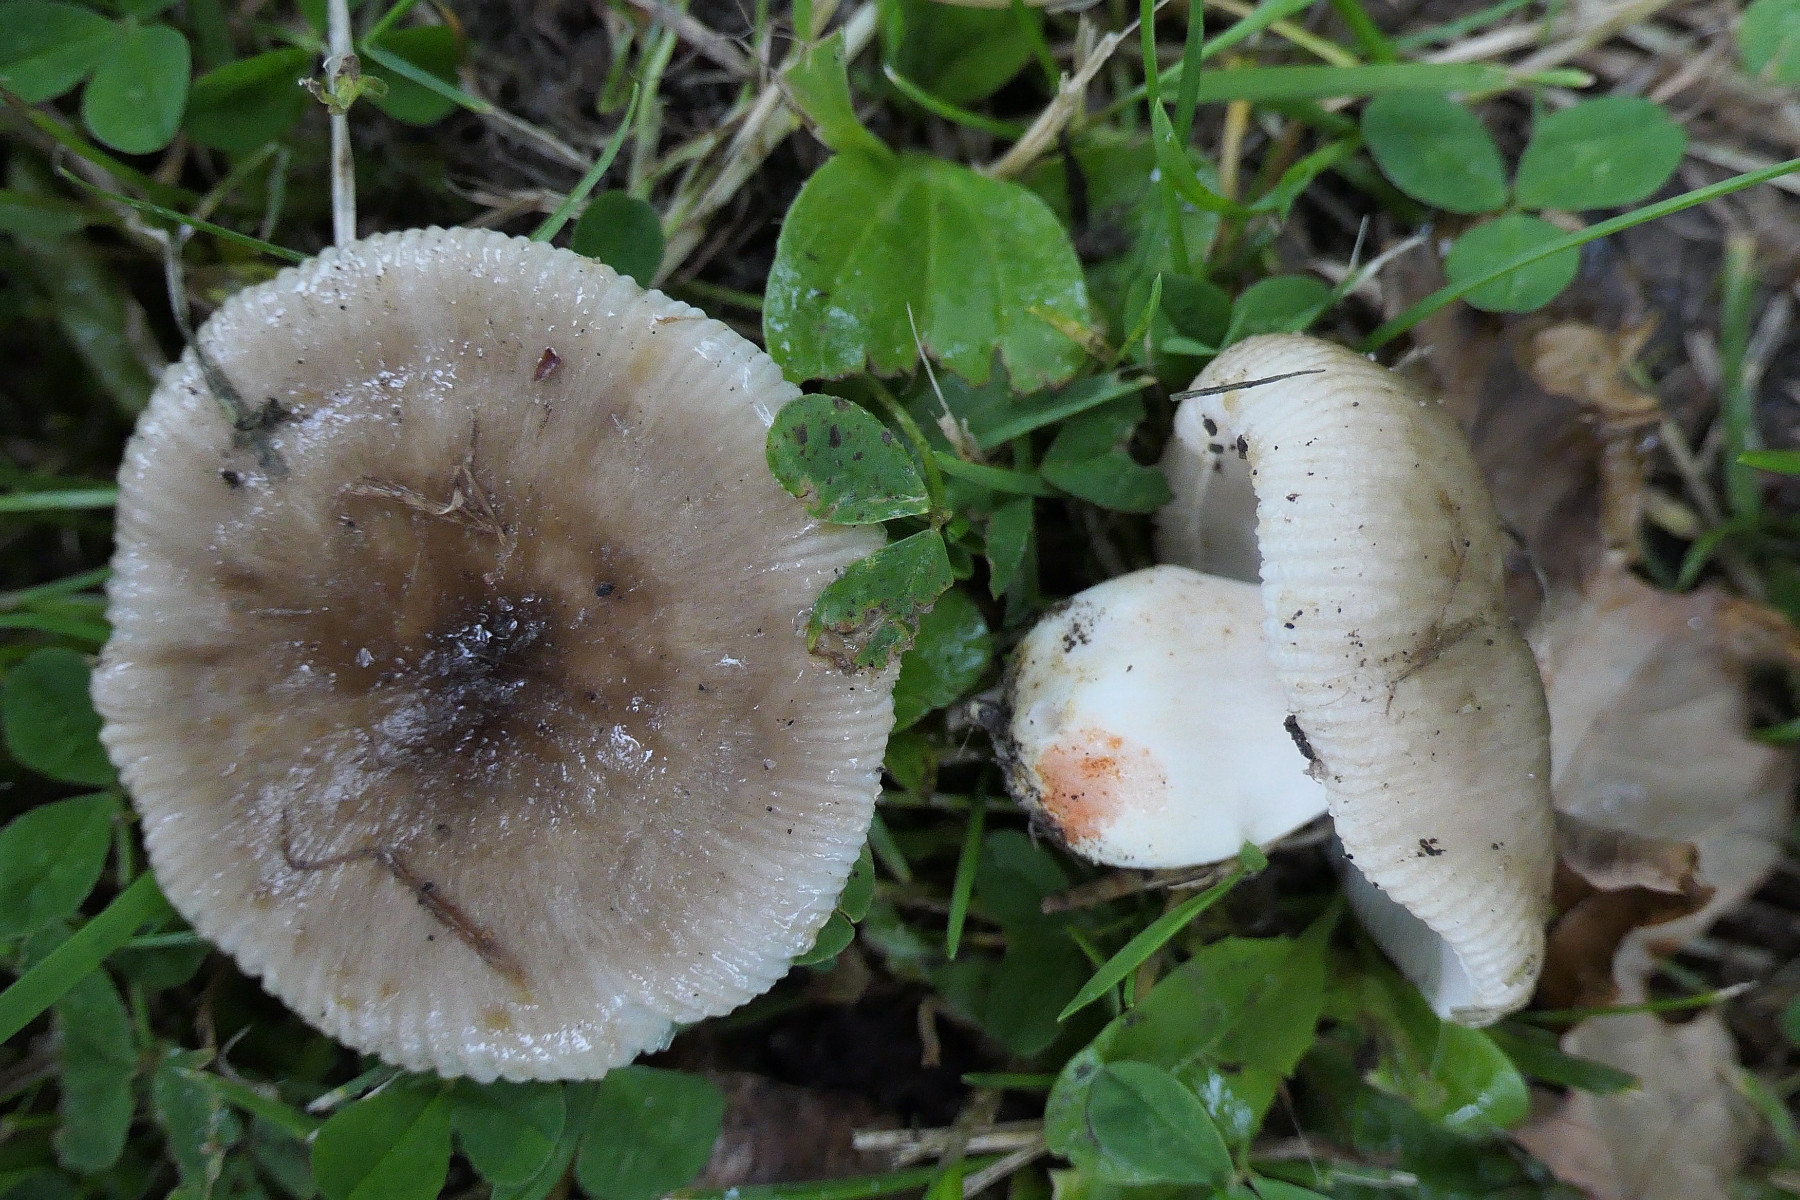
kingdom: Fungi
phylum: Basidiomycota
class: Agaricomycetes
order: Russulales
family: Russulaceae
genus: Russula
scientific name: Russula insignis
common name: gulfodet kam-skørhat
